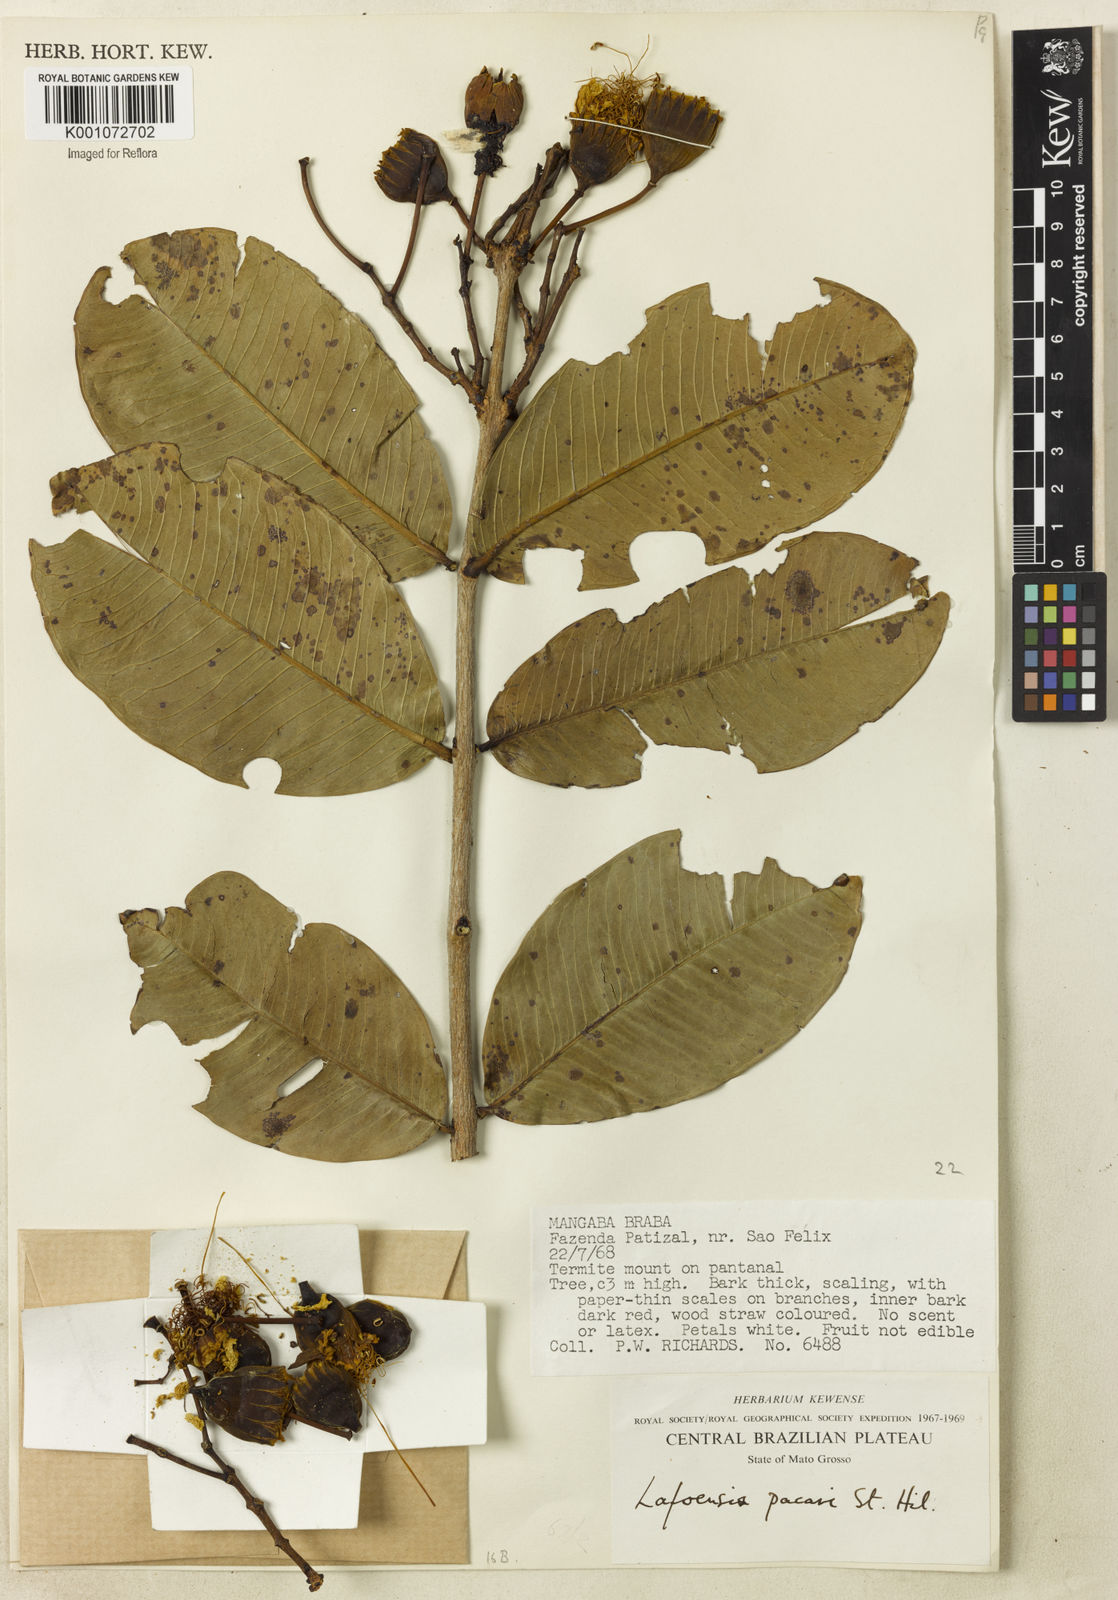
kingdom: Plantae
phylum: Tracheophyta
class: Magnoliopsida
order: Myrtales
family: Lythraceae
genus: Lafoensia
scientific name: Lafoensia pacari
